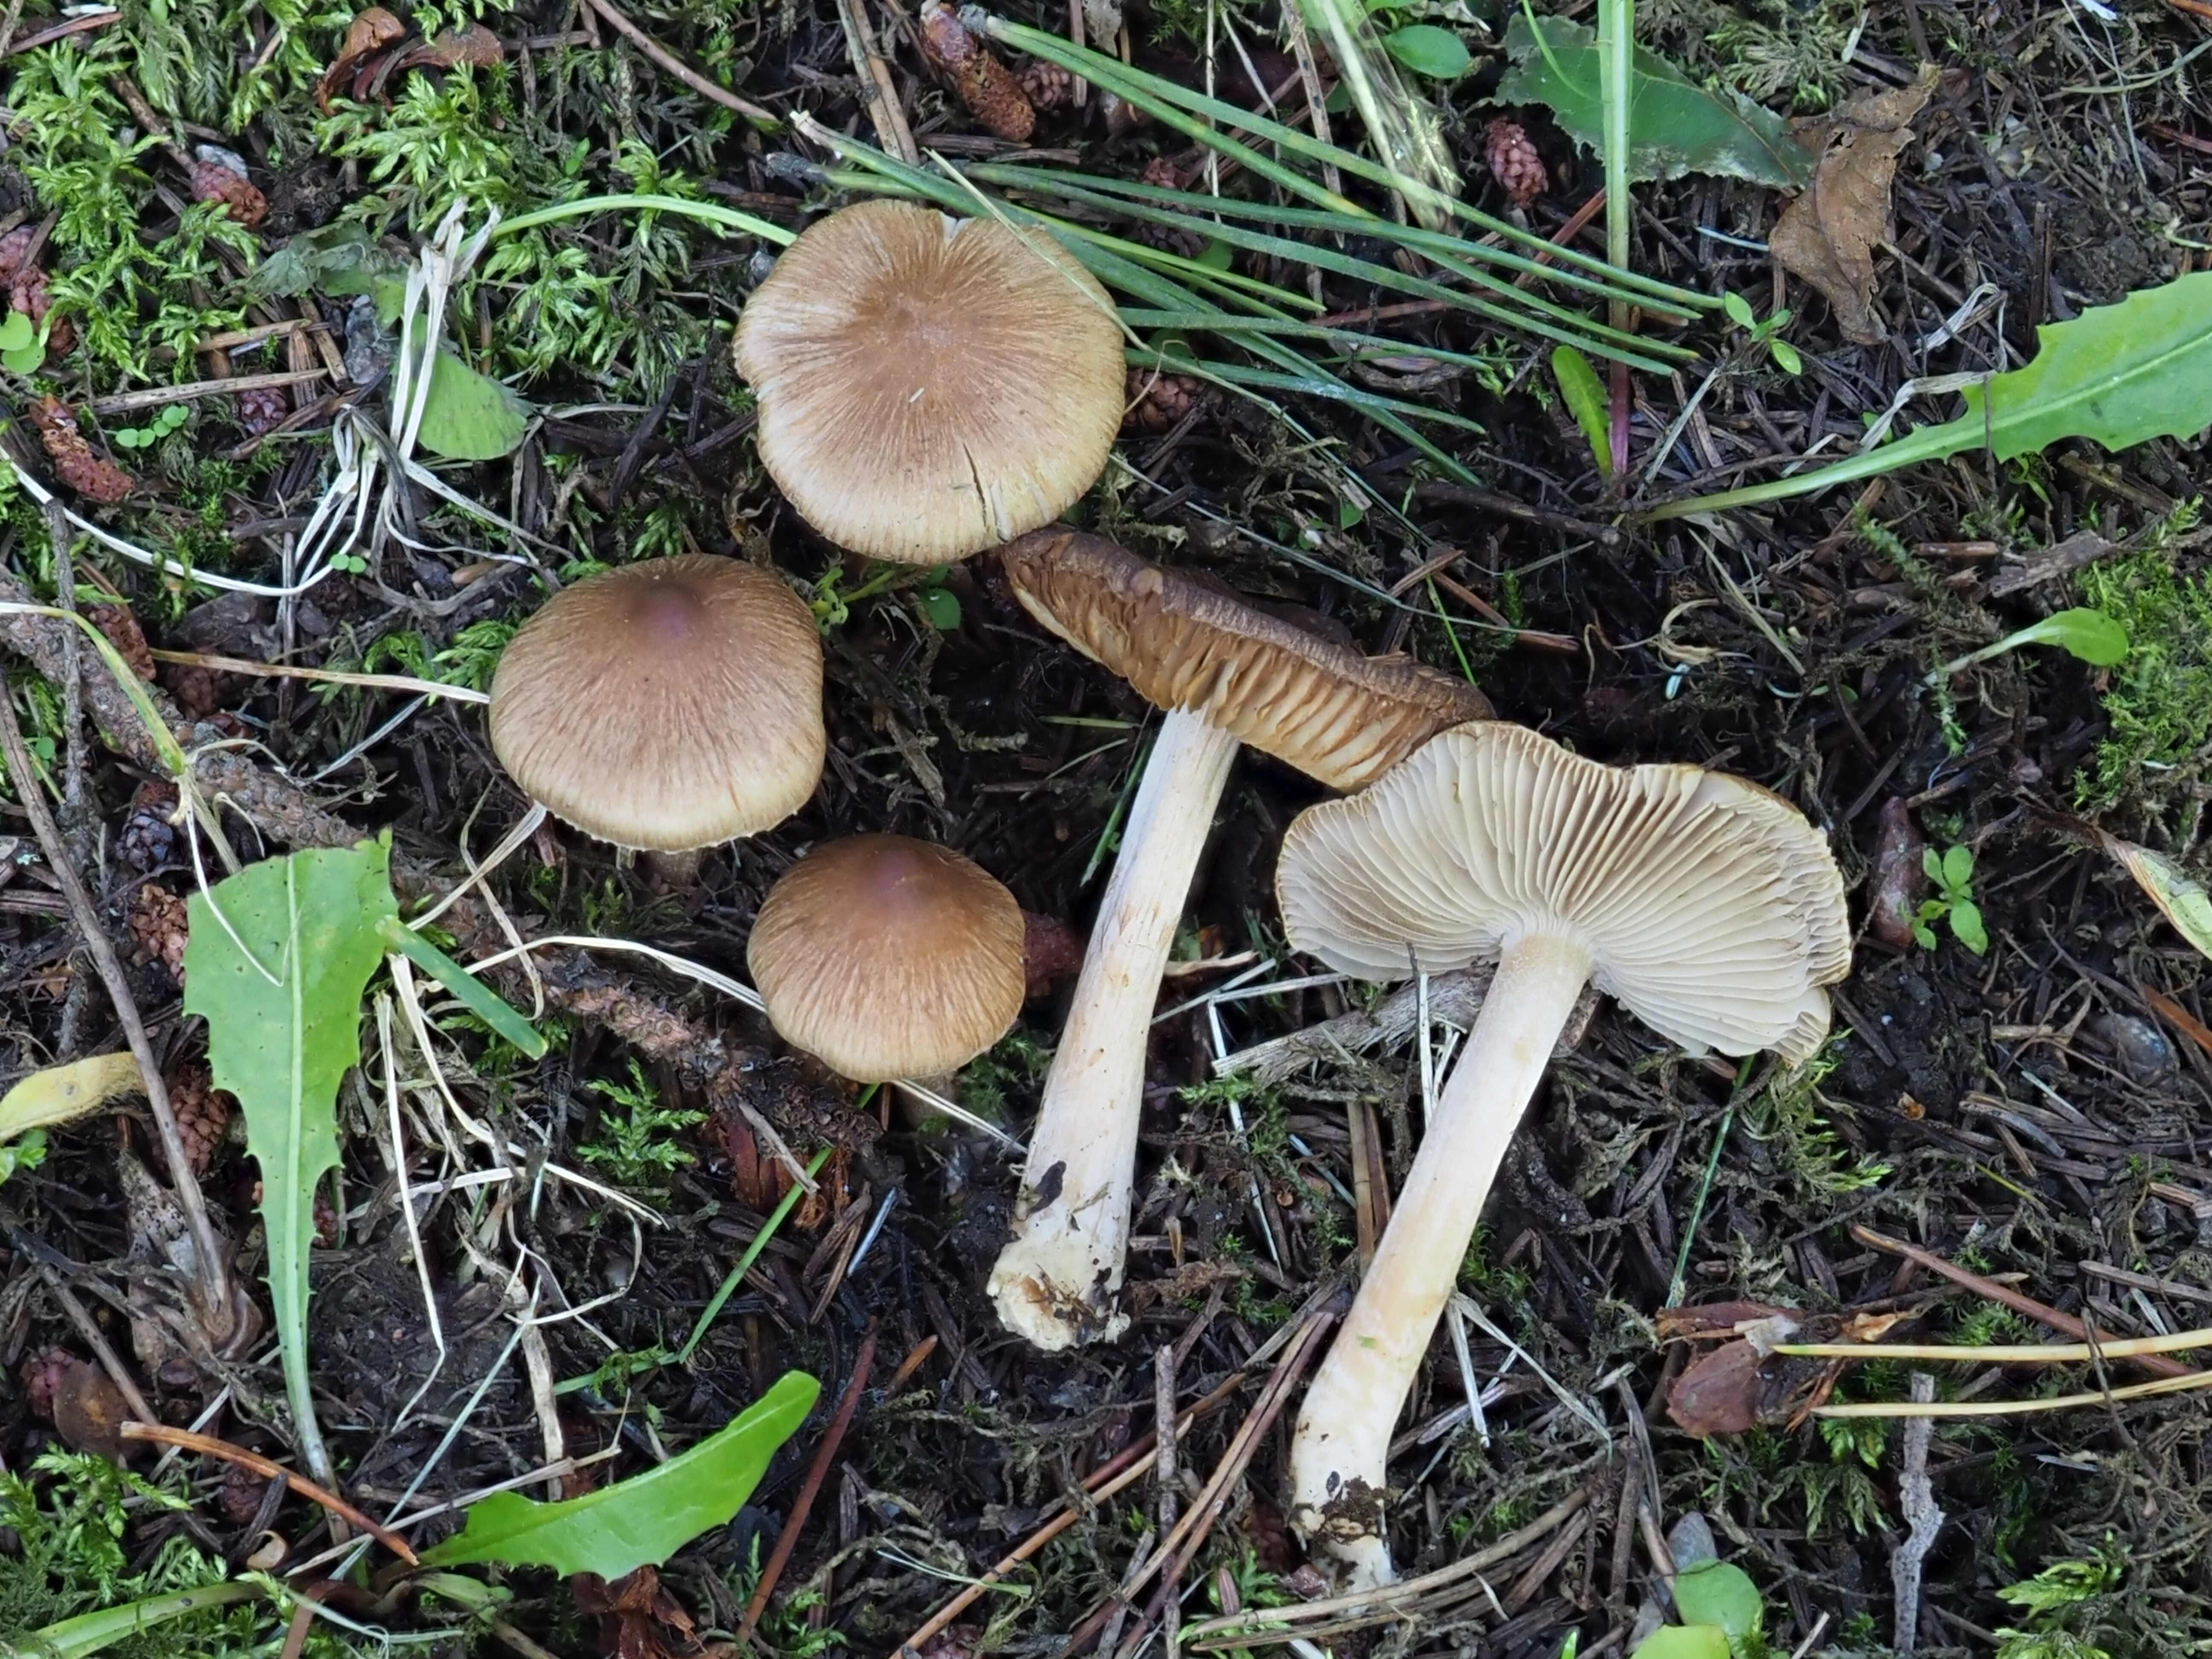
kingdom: Fungi
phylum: Basidiomycota
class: Agaricomycetes
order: Agaricales
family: Inocybaceae
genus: Inocybe
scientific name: Inocybe
